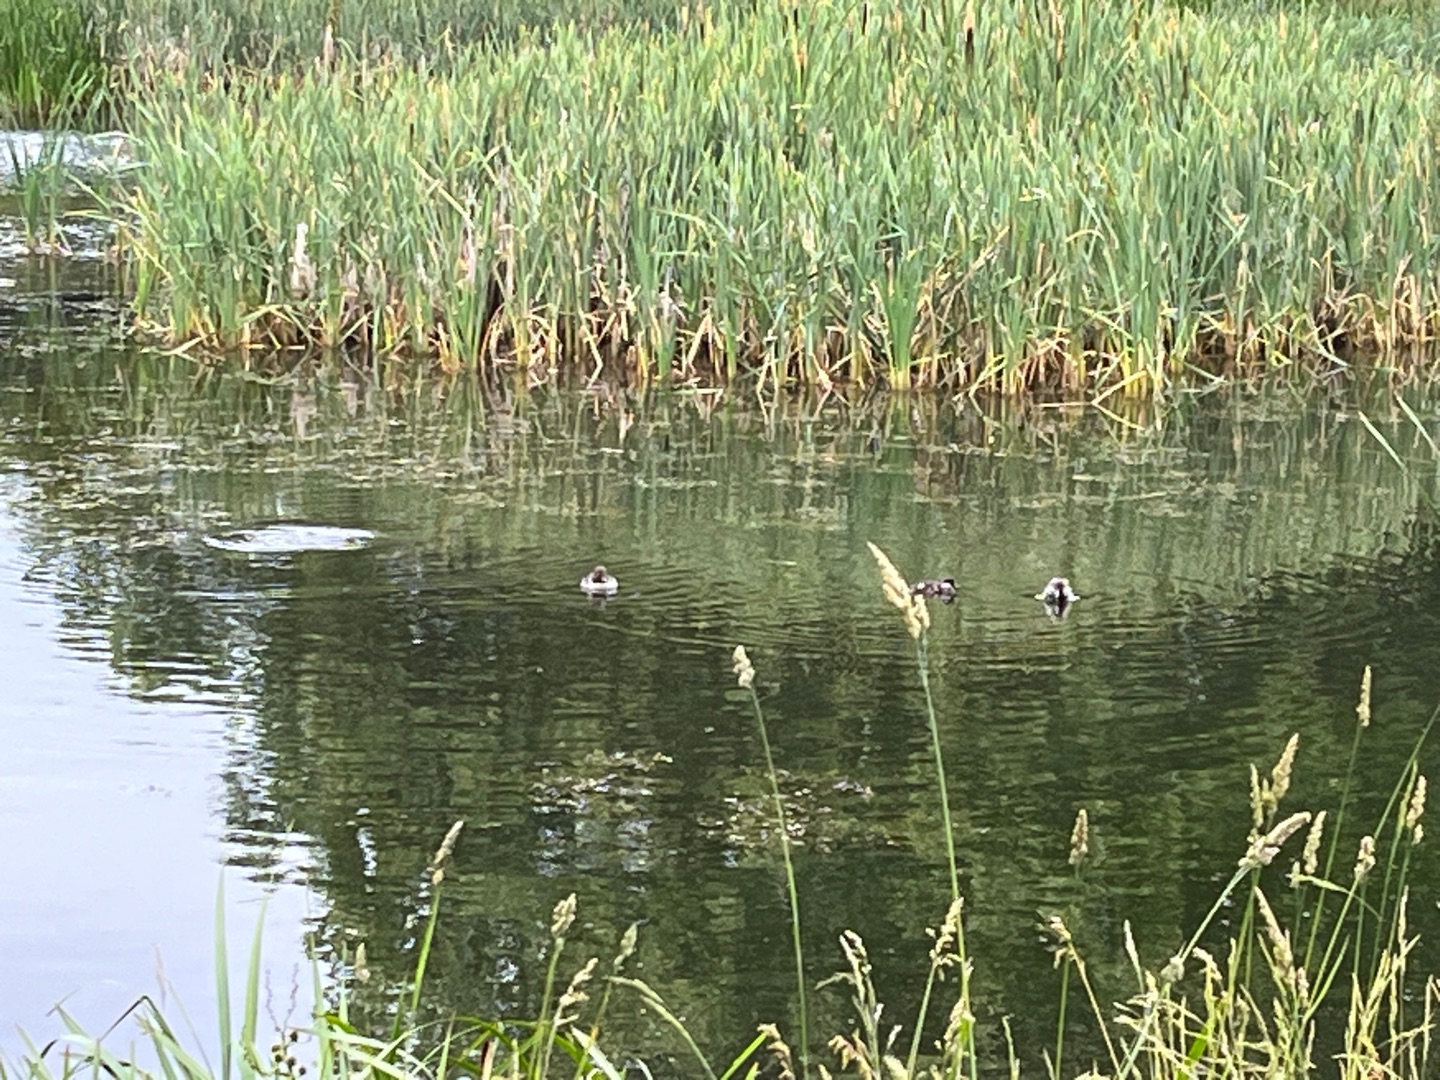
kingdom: Animalia
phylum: Chordata
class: Aves
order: Anseriformes
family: Anatidae
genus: Bucephala
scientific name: Bucephala clangula
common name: Hvinand
